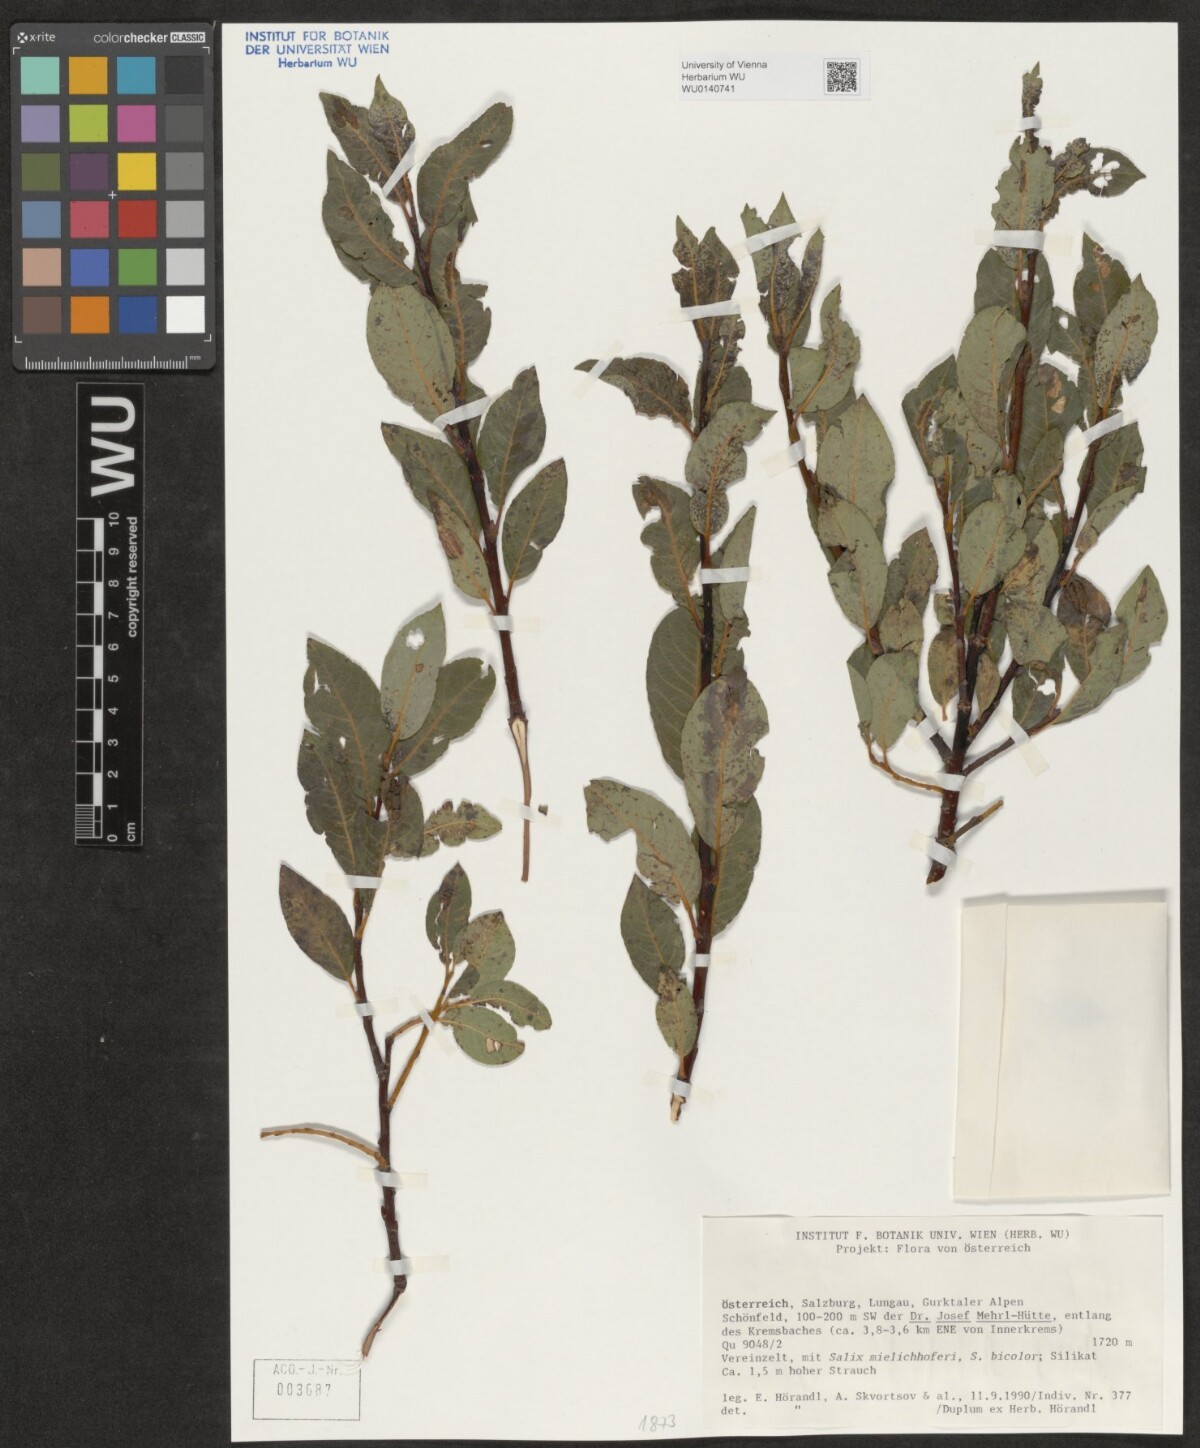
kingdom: Plantae
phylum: Tracheophyta
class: Magnoliopsida
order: Malpighiales
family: Salicaceae
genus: Salix
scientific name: Salix
